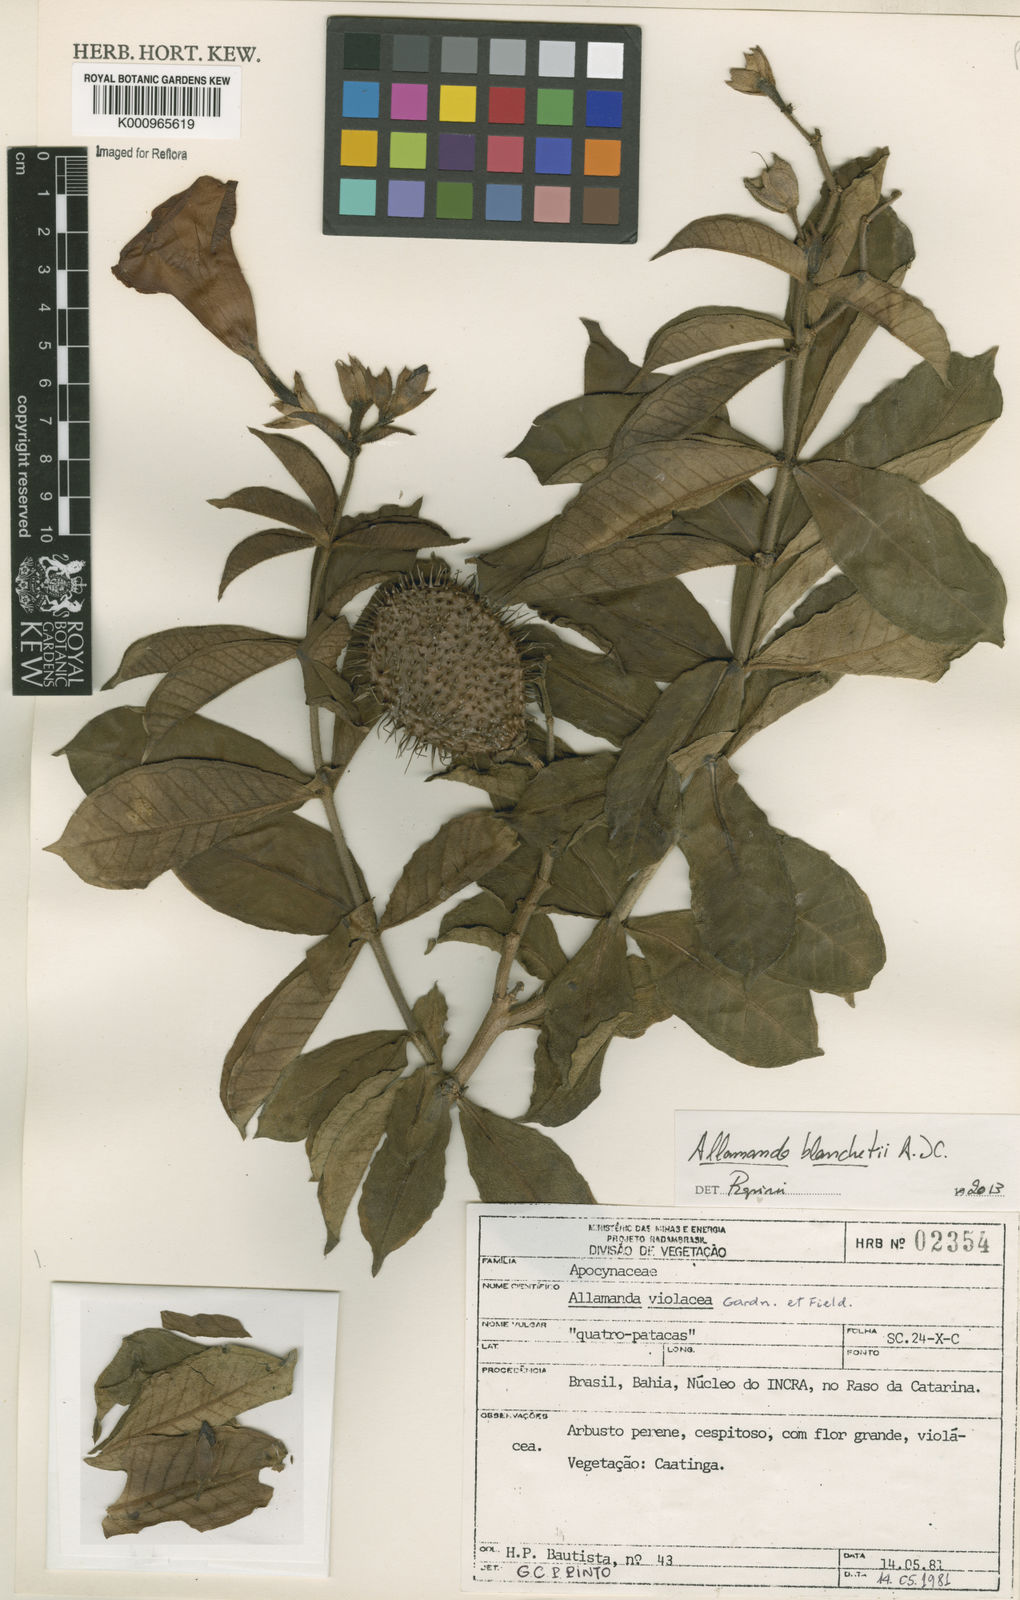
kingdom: Plantae
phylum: Tracheophyta
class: Magnoliopsida
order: Gentianales
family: Apocynaceae
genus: Allamanda
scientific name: Allamanda blanchetii
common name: Purple allamanda
